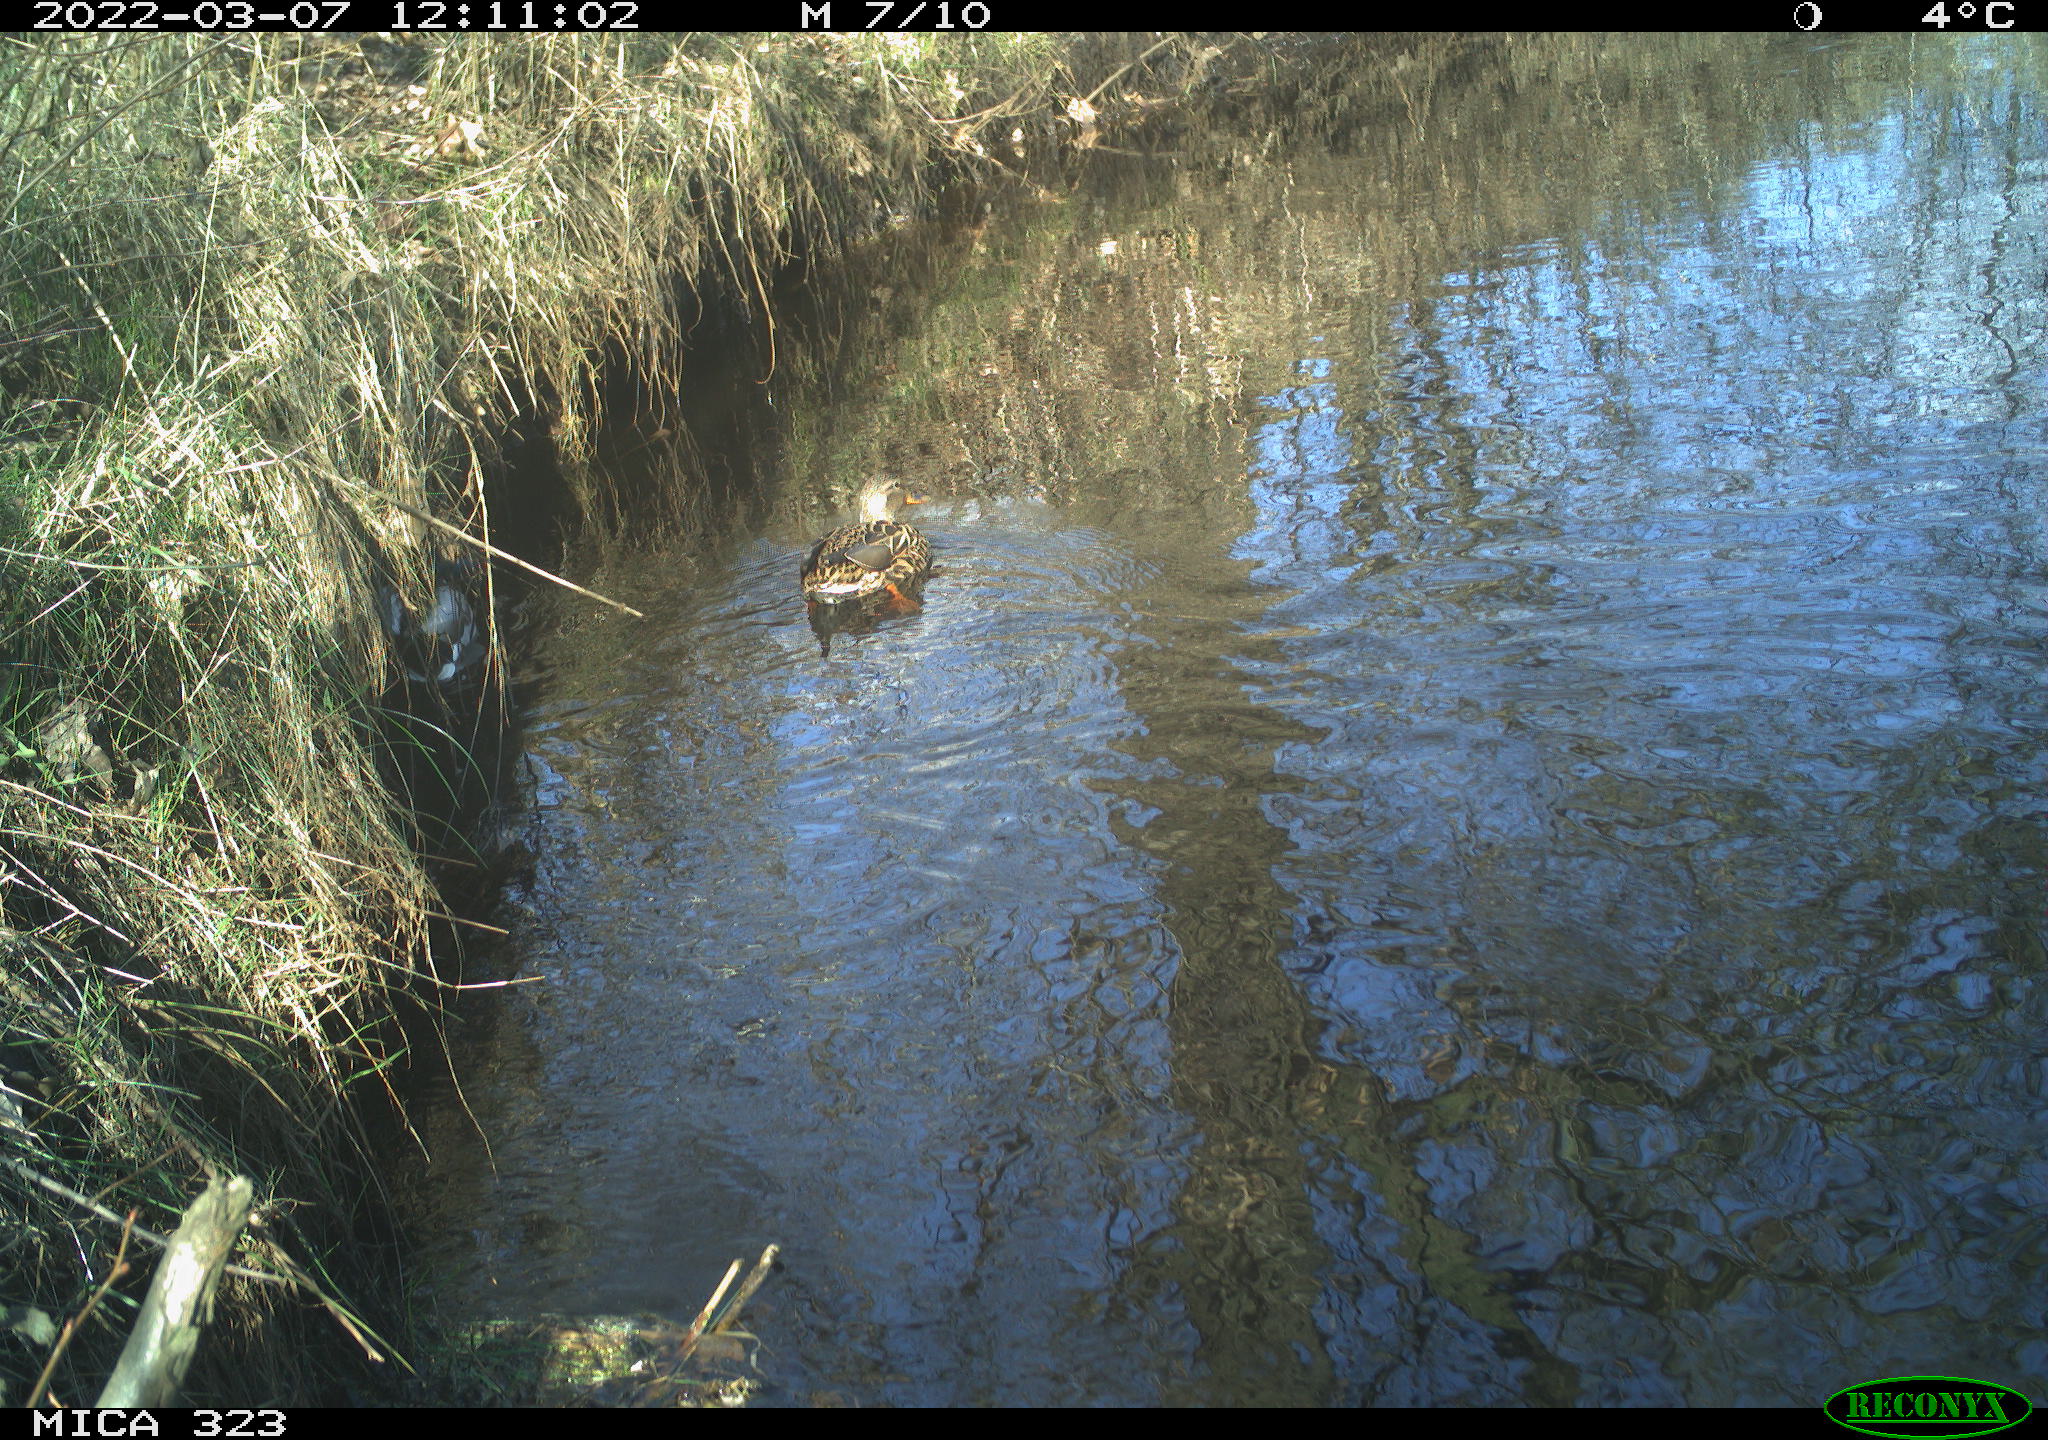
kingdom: Animalia
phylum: Chordata
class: Aves
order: Anseriformes
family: Anatidae
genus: Anas
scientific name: Anas platyrhynchos
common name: Mallard
